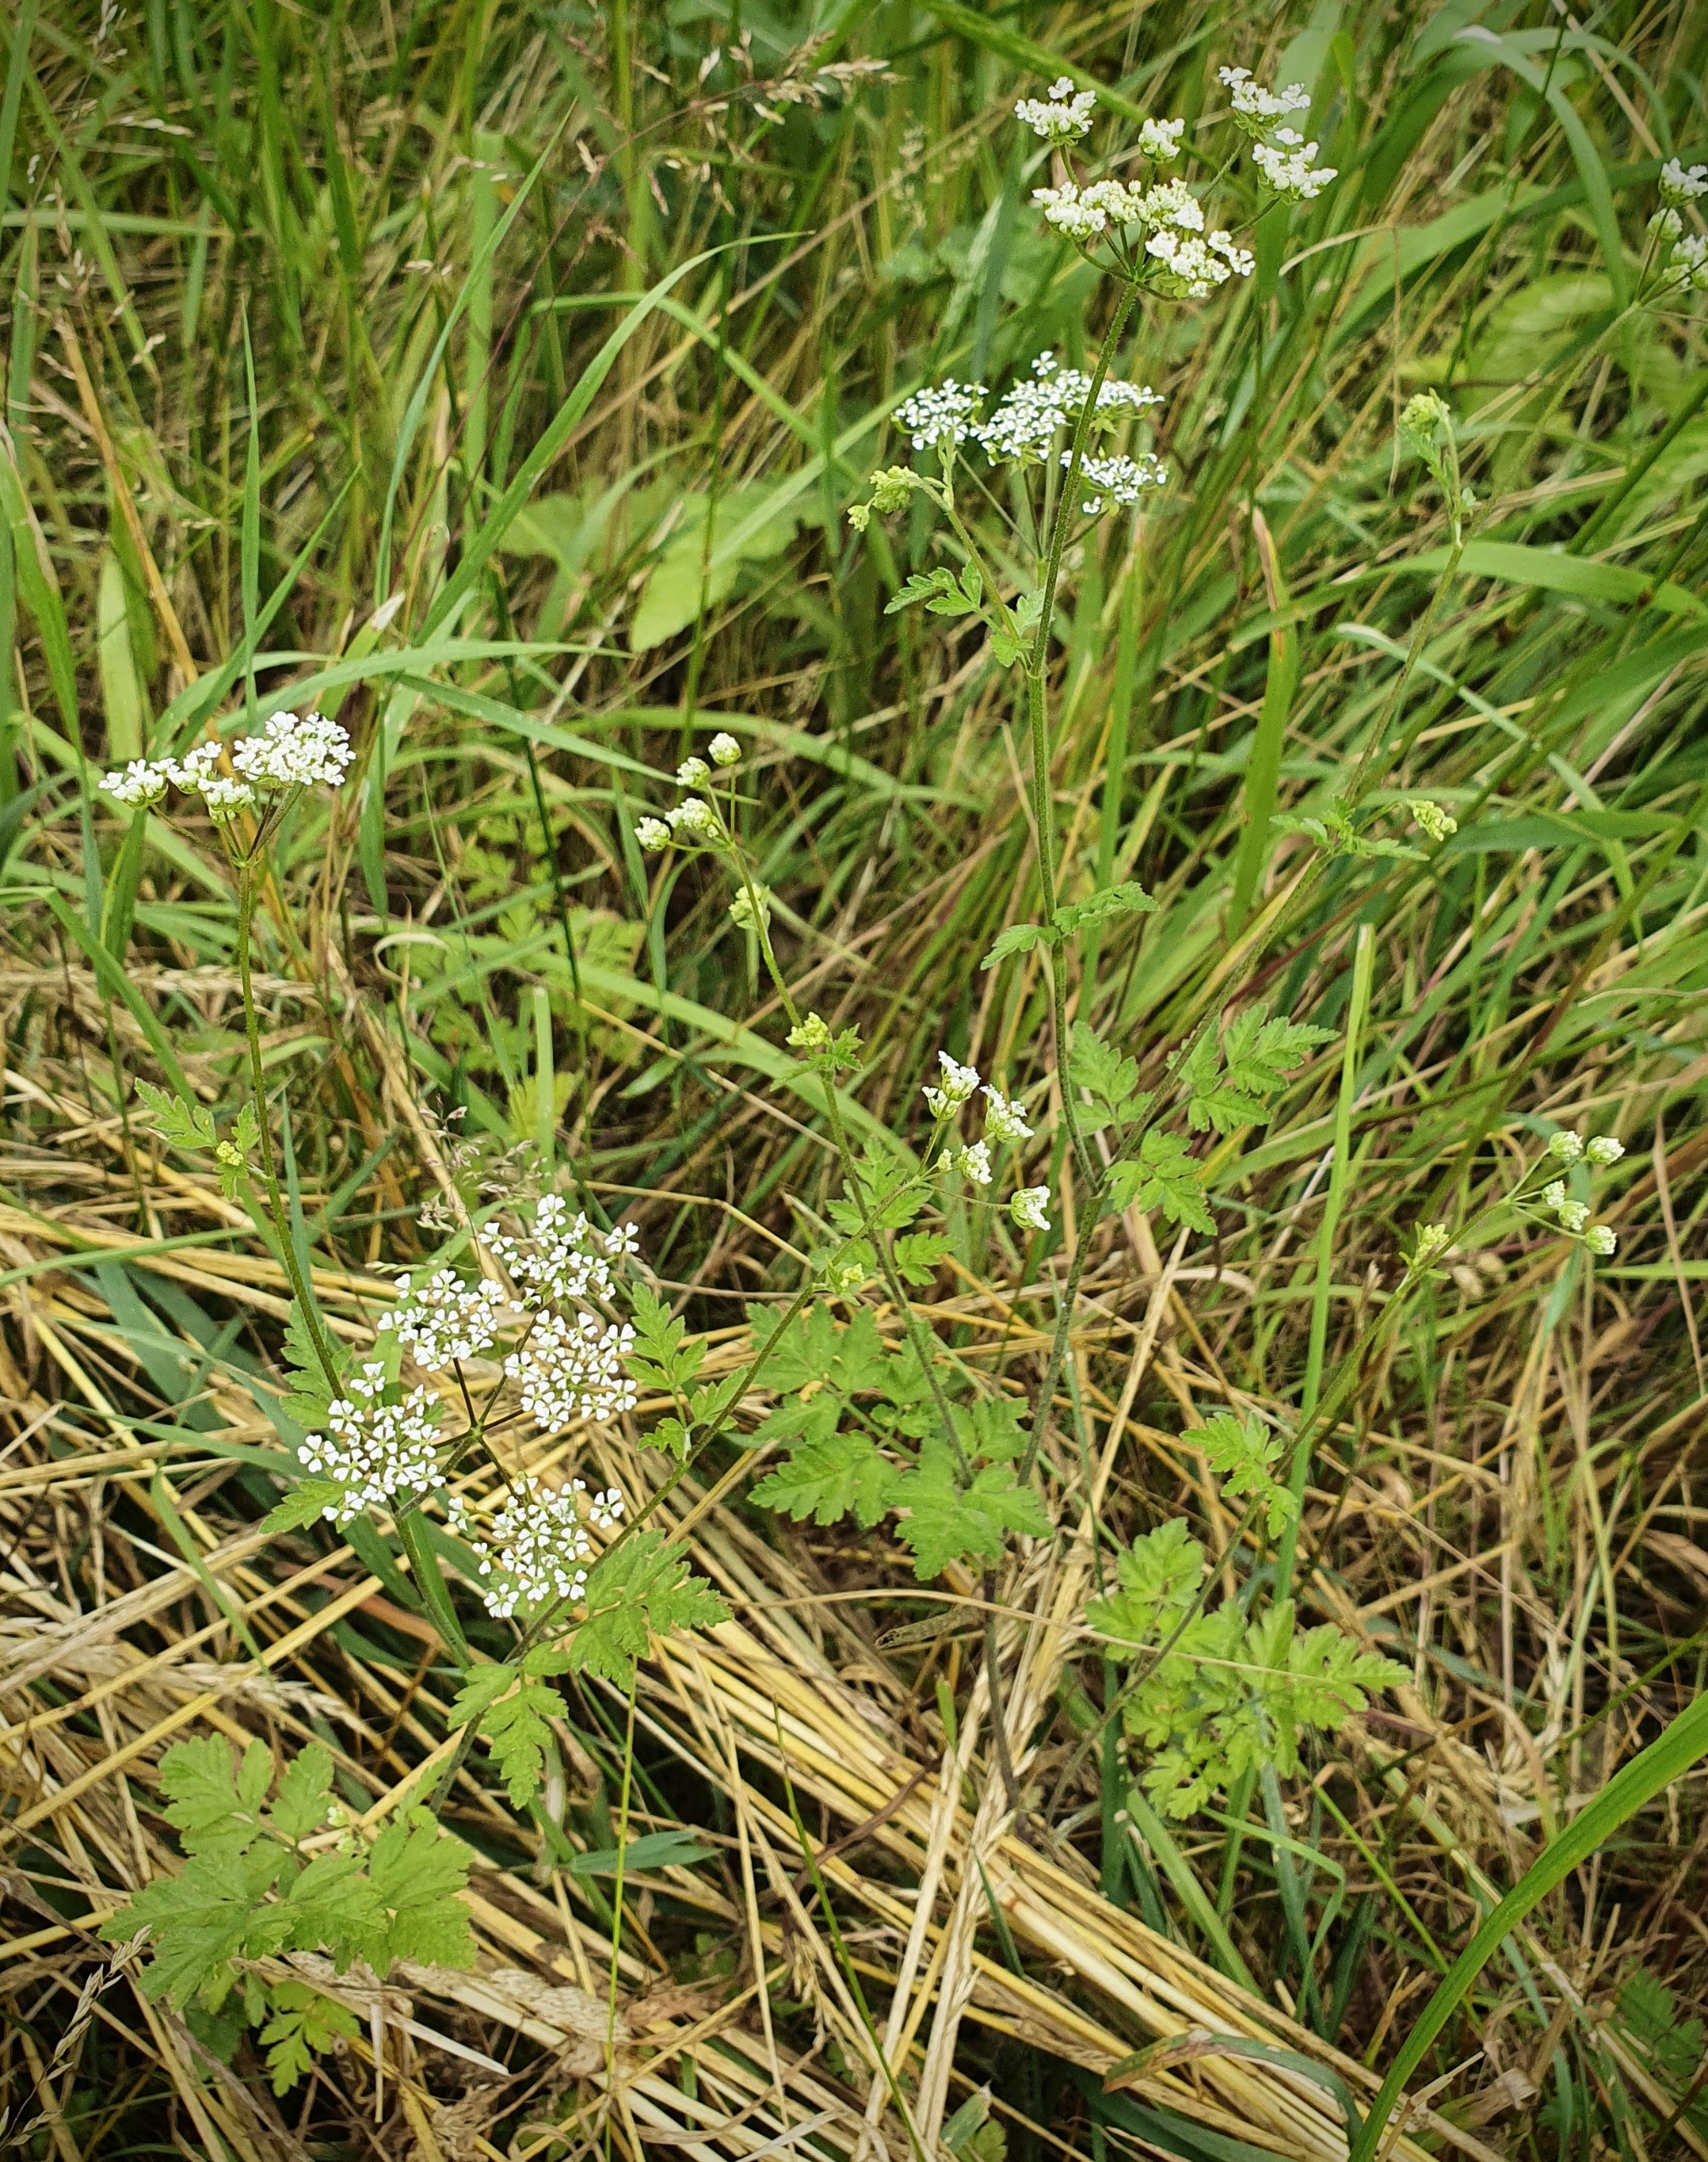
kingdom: Plantae
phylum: Tracheophyta
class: Magnoliopsida
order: Apiales
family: Apiaceae
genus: Chaerophyllum
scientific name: Chaerophyllum temulum
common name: Almindelig hulsvøb
